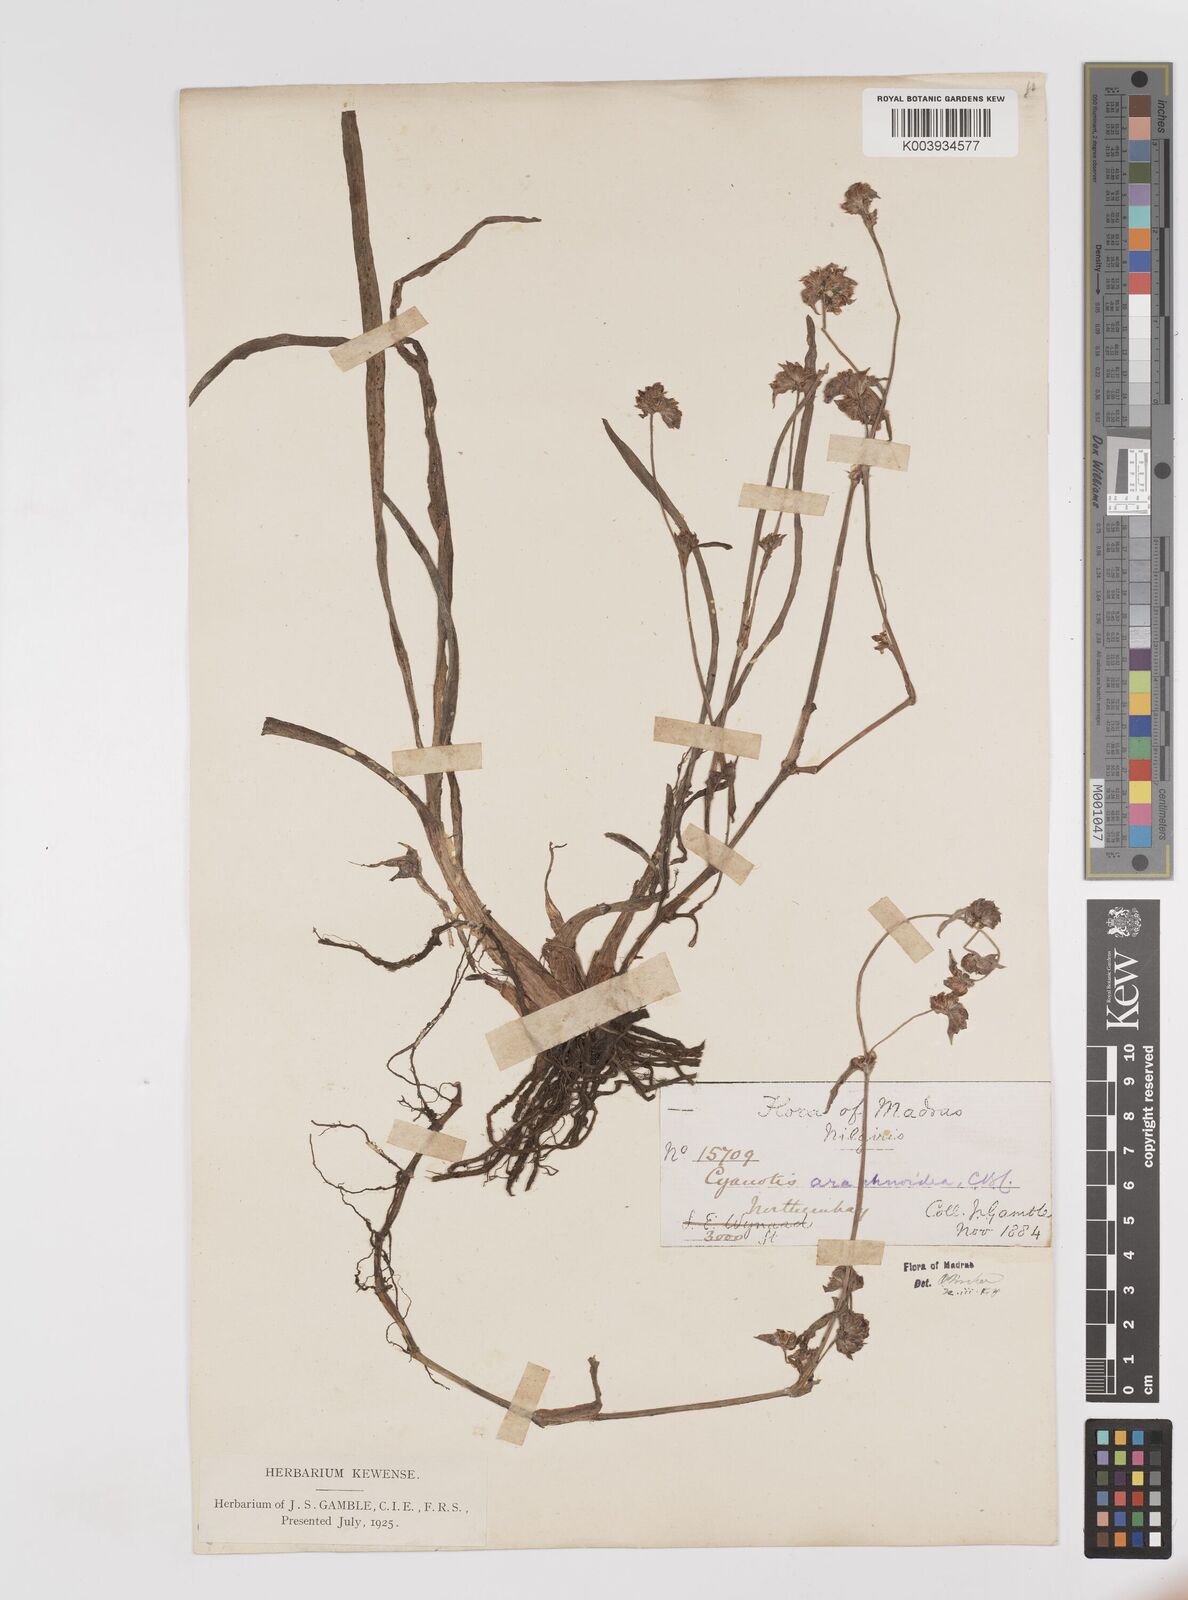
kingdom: Plantae
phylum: Tracheophyta
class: Liliopsida
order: Commelinales
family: Commelinaceae
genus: Cyanotis
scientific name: Cyanotis arachnoidea
